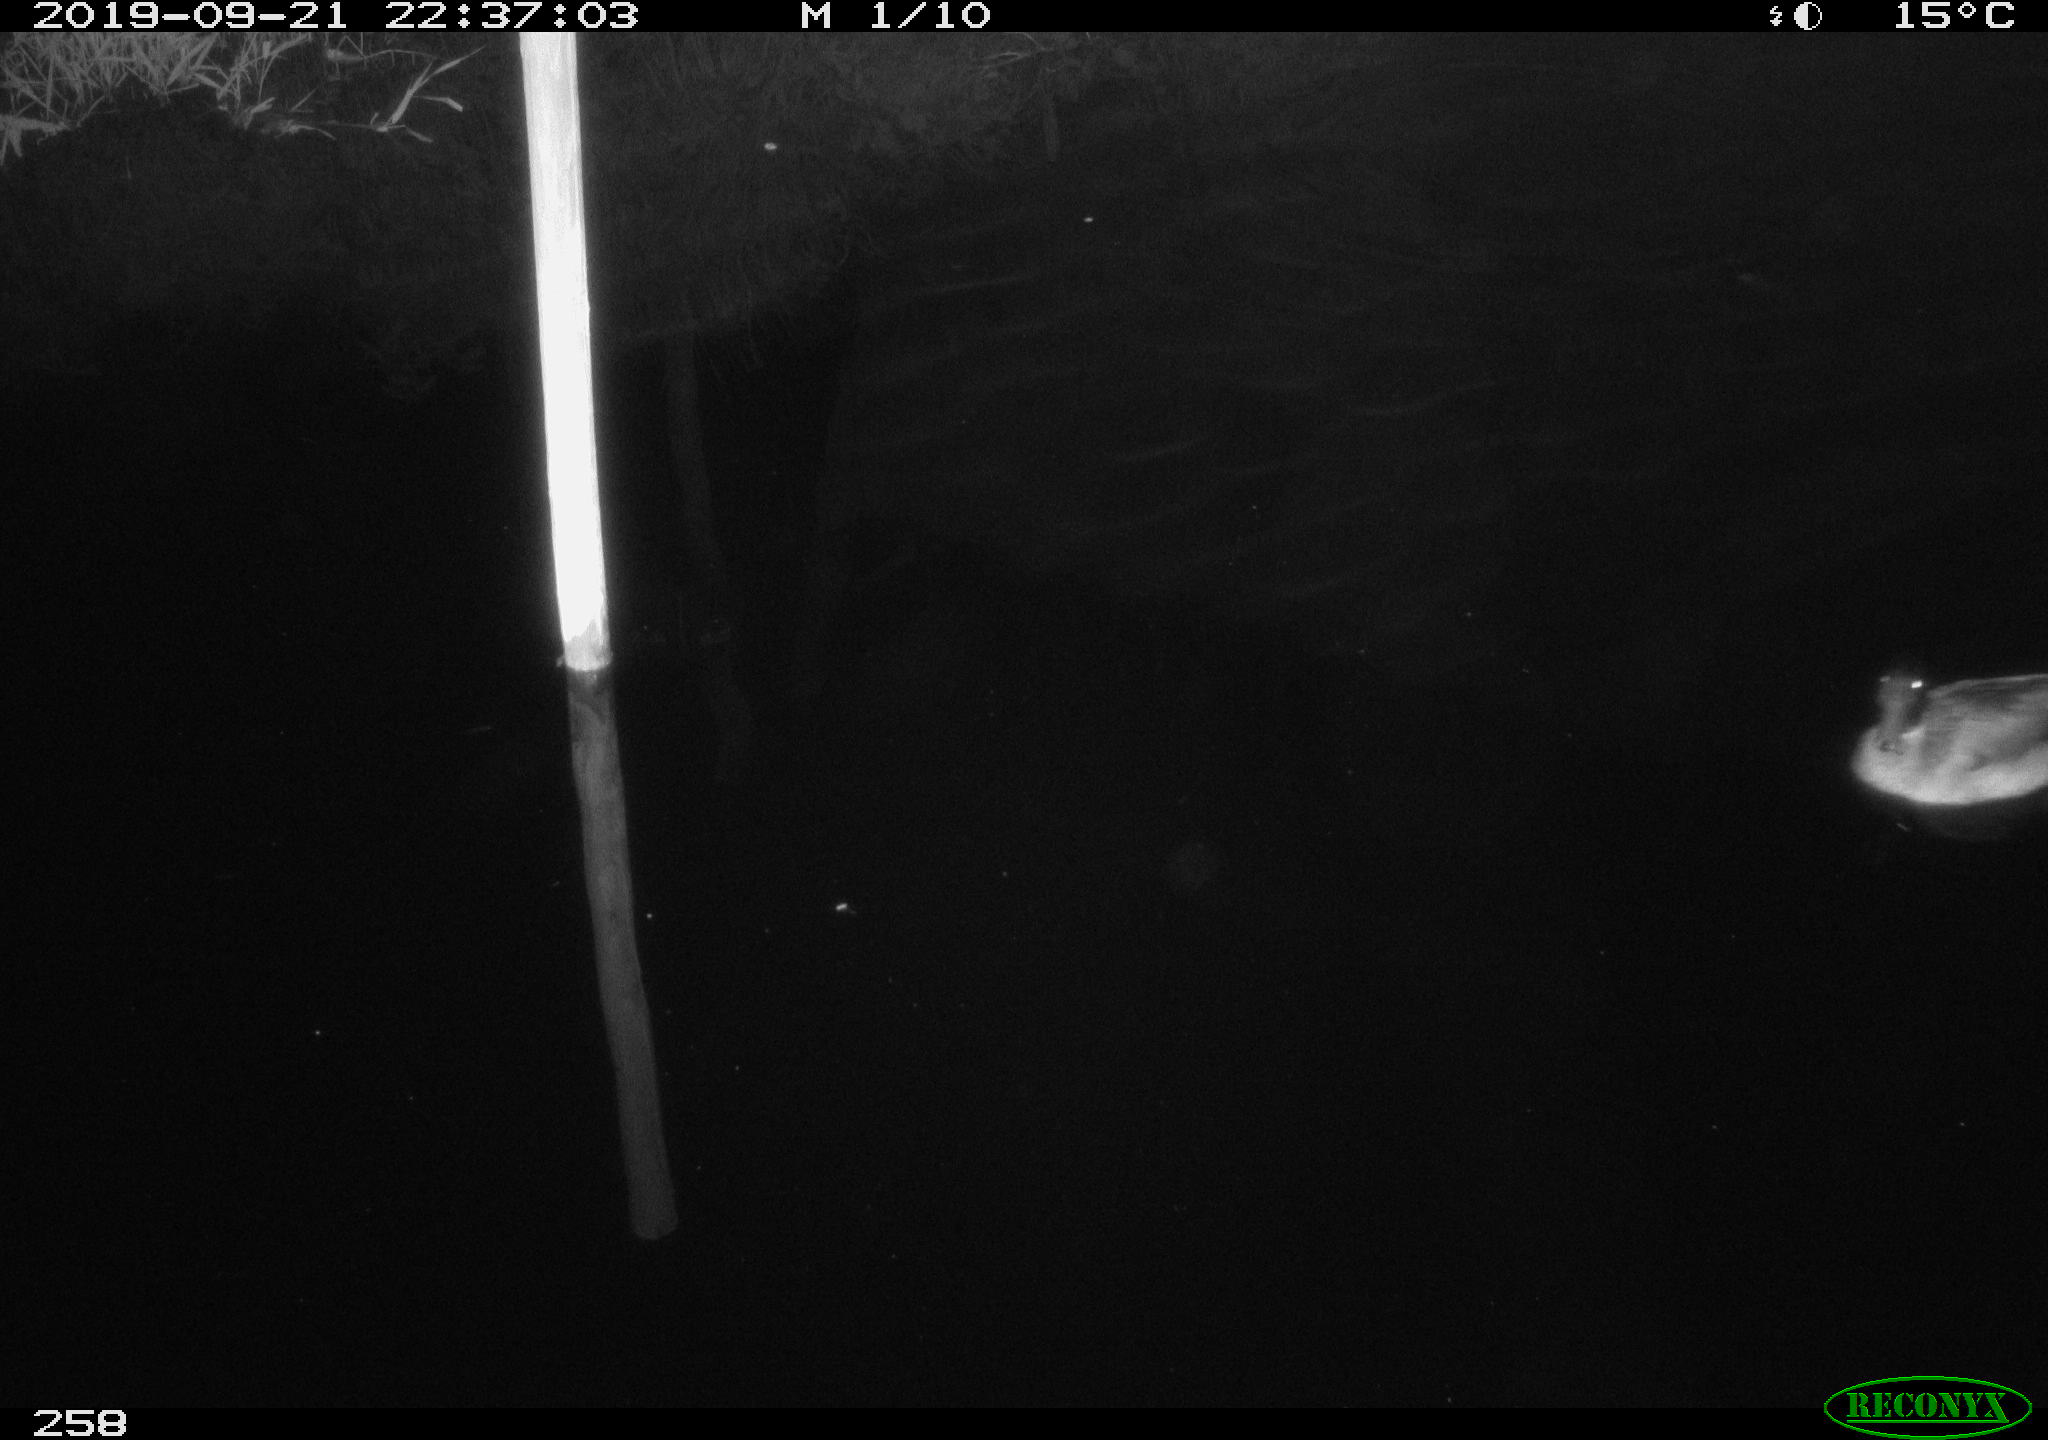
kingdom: Animalia
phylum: Chordata
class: Aves
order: Anseriformes
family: Anatidae
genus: Anas
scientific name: Anas platyrhynchos
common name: Mallard
